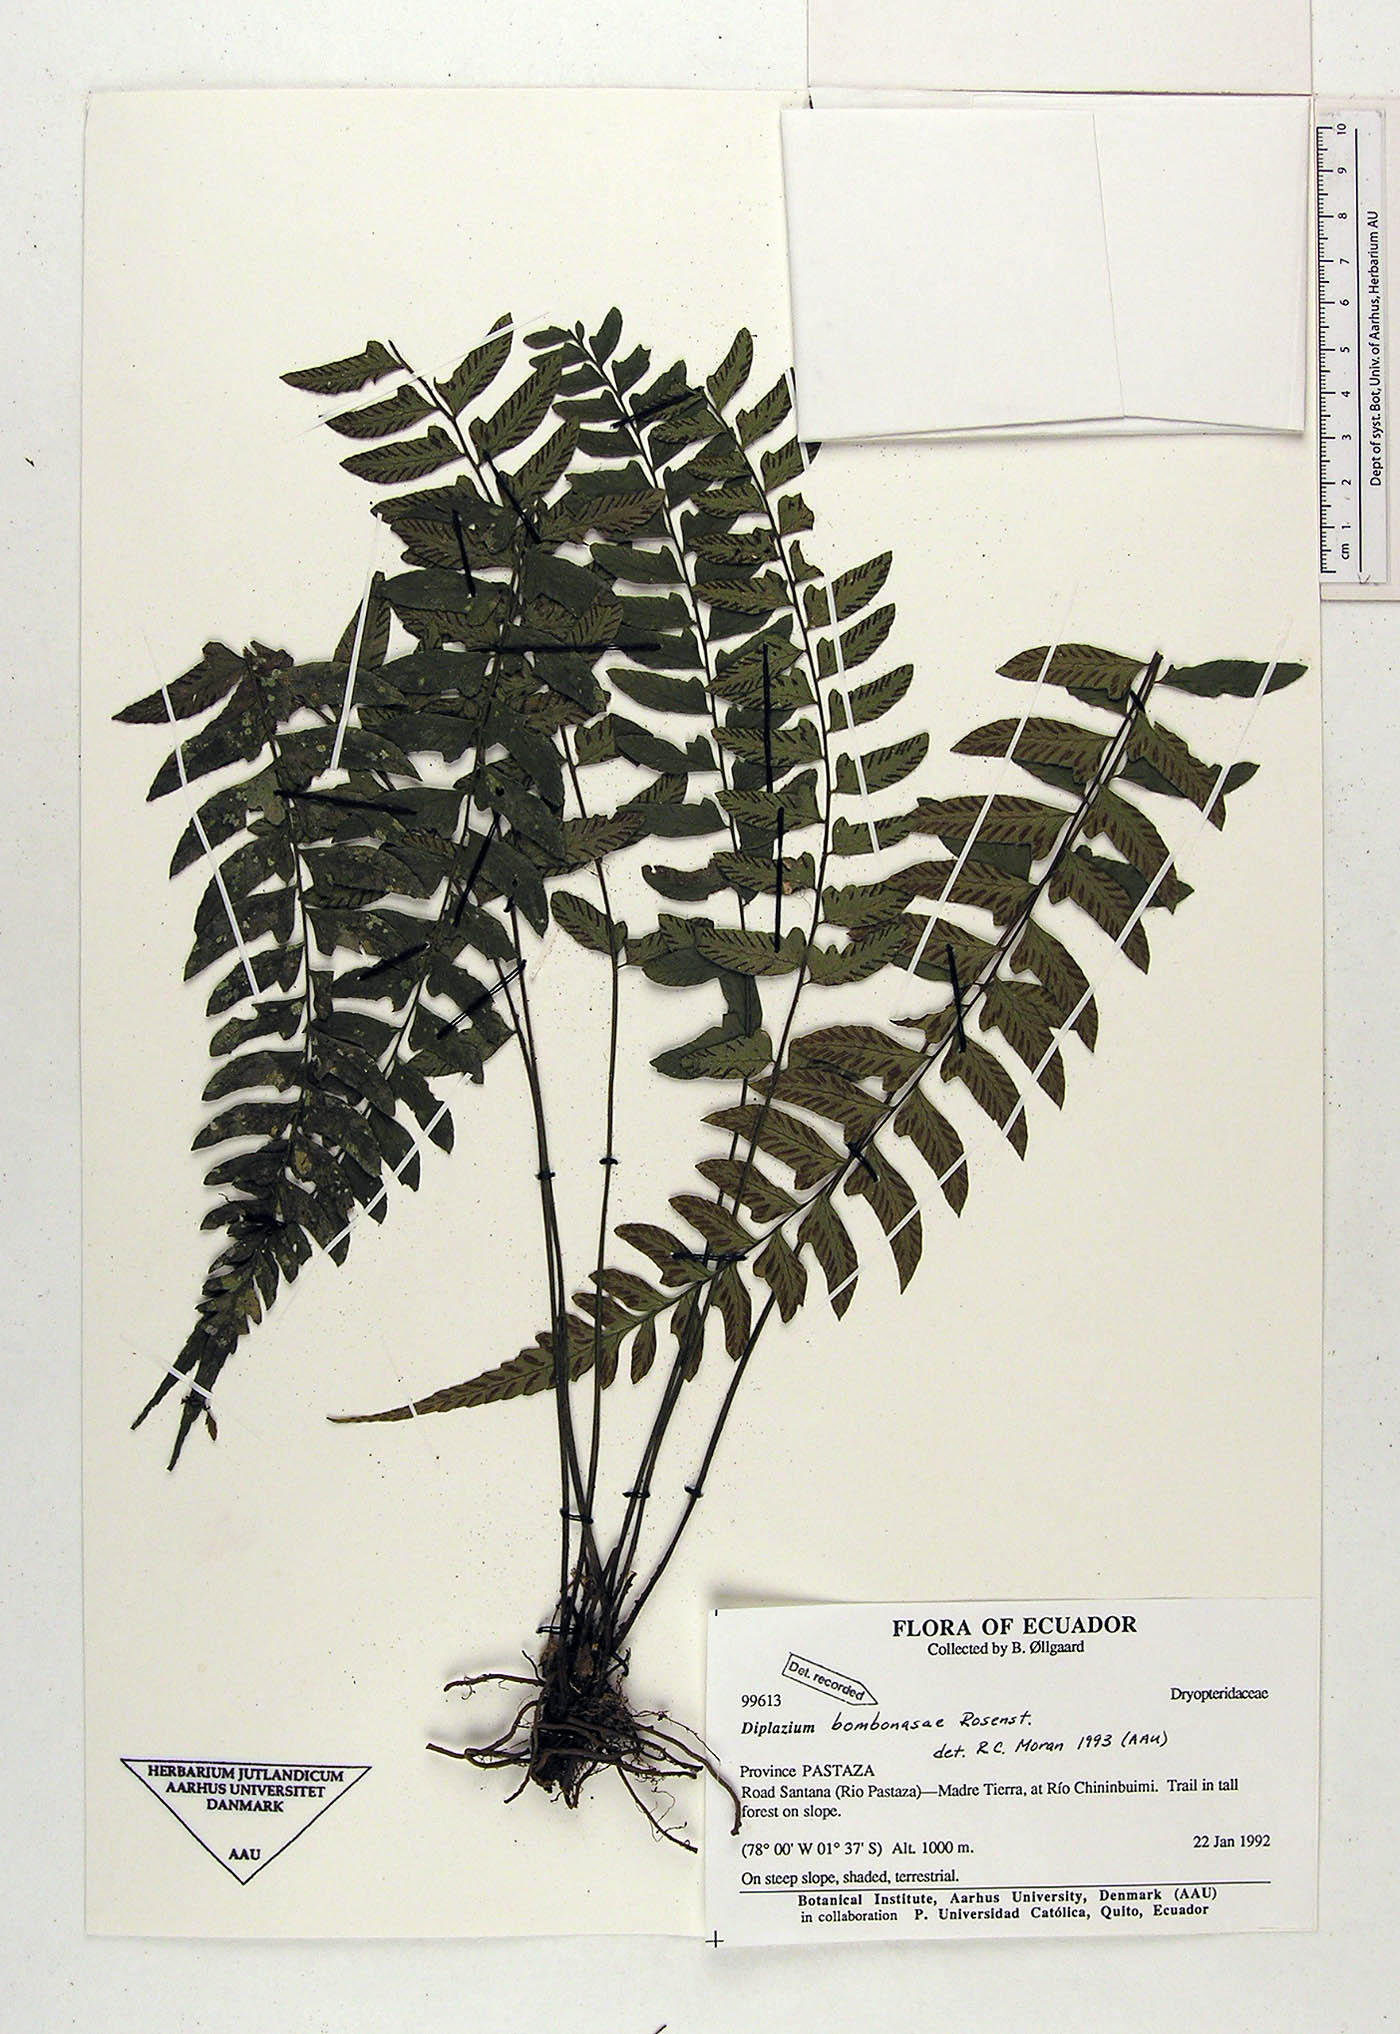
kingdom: Plantae
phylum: Tracheophyta
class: Polypodiopsida
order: Polypodiales
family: Athyriaceae
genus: Diplazium
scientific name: Diplazium bombonasae
